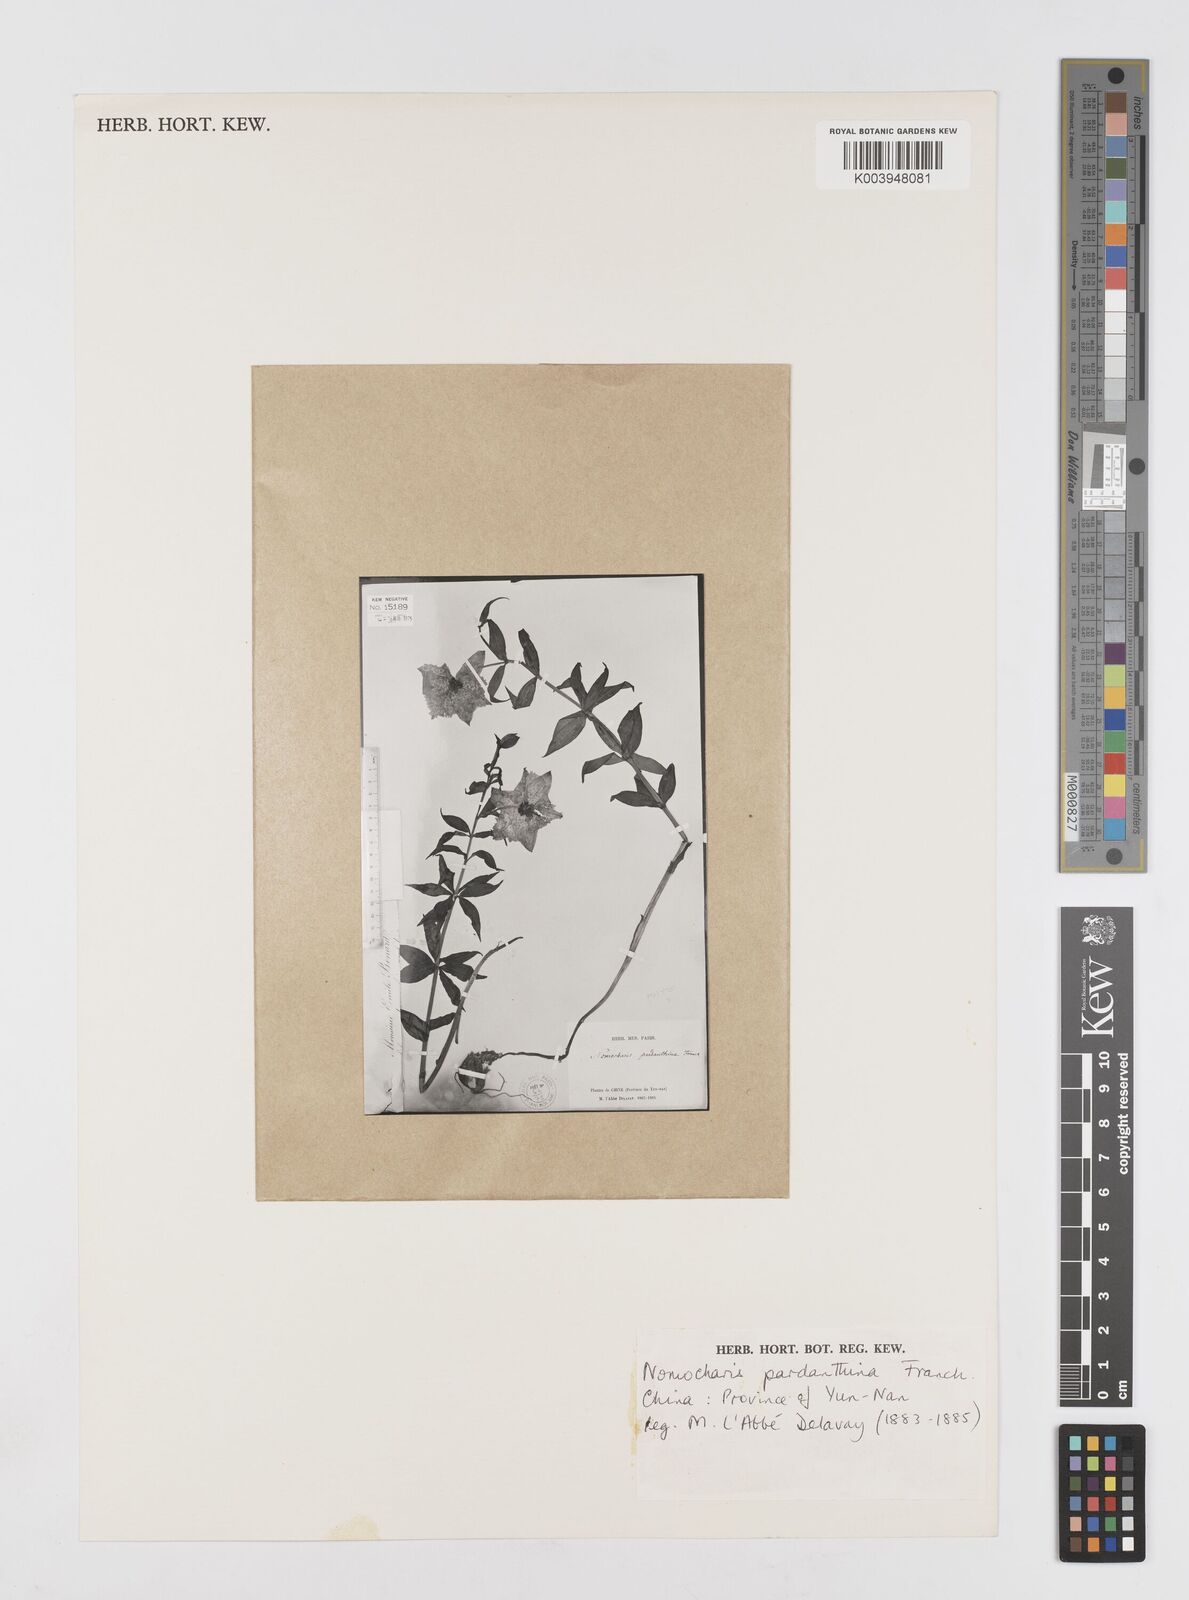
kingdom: Plantae
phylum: Tracheophyta
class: Liliopsida
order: Liliales
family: Liliaceae
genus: Lilium
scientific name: Lilium pardanthinum
